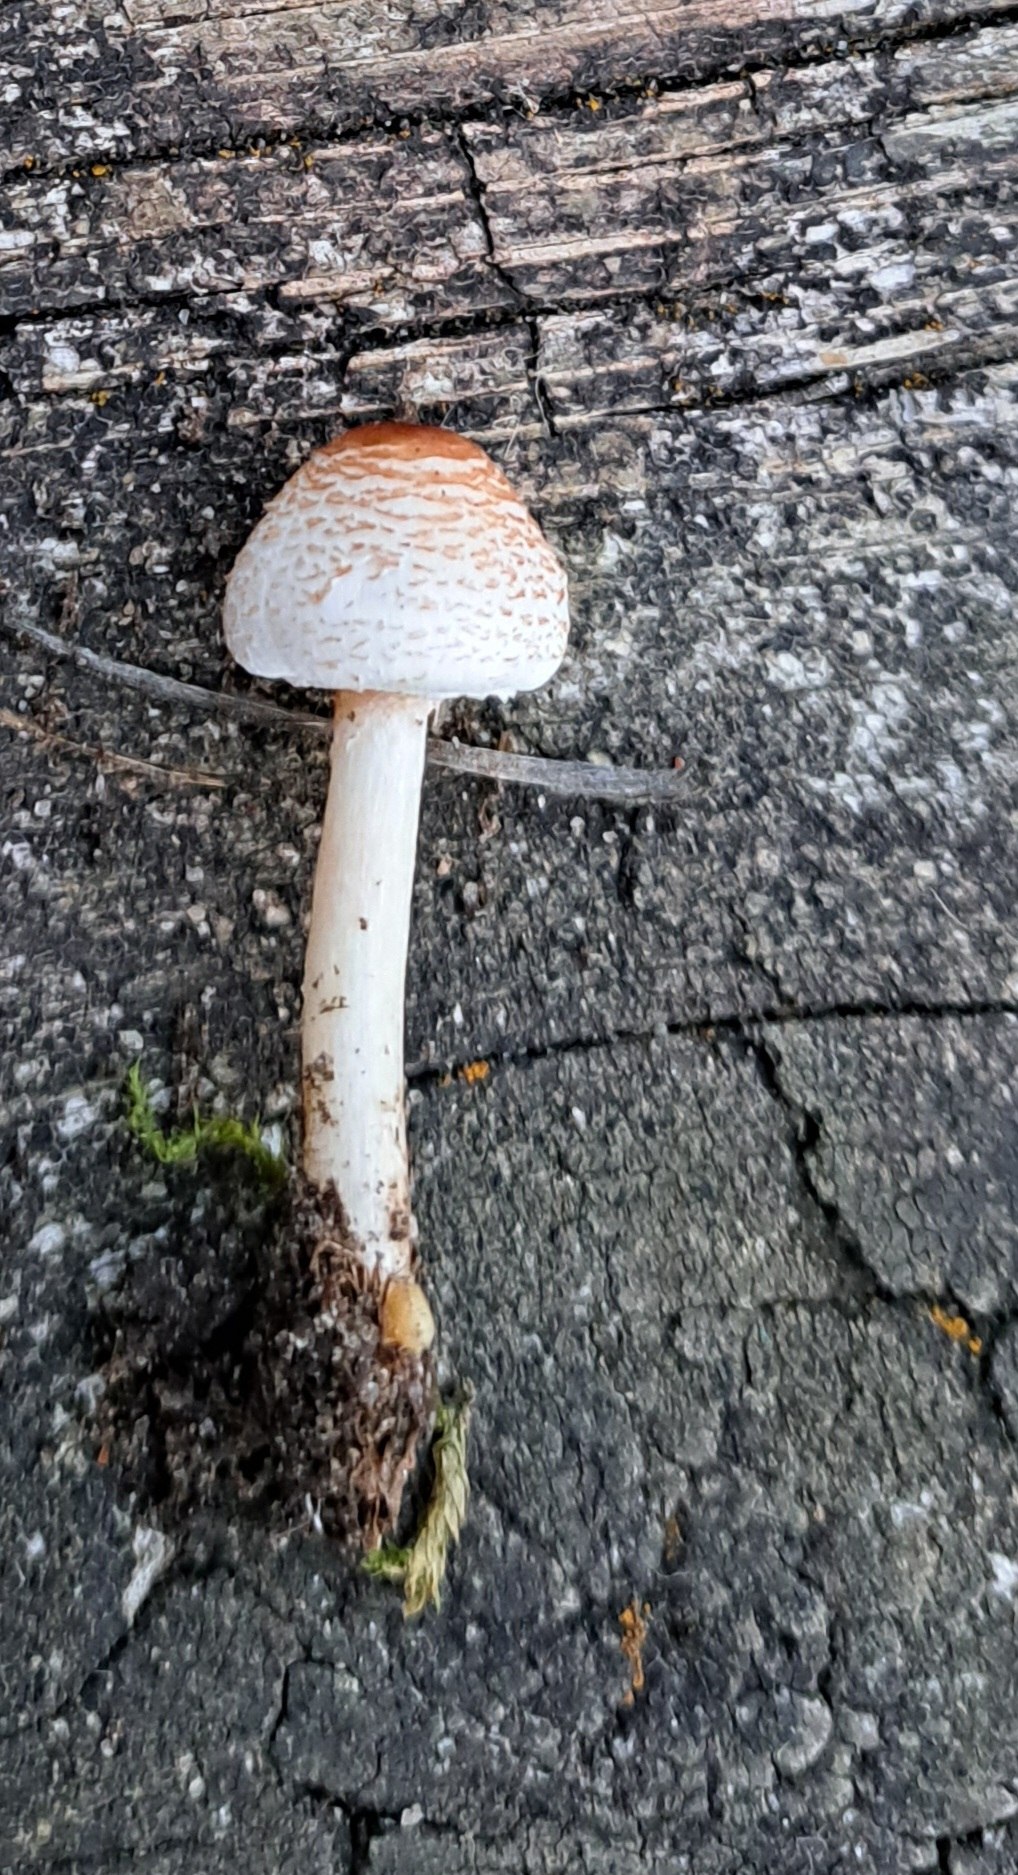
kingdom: Fungi
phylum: Basidiomycota
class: Agaricomycetes
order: Agaricales
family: Agaricaceae
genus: Lepiota
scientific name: Lepiota cristata
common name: stinkende parasolhat
